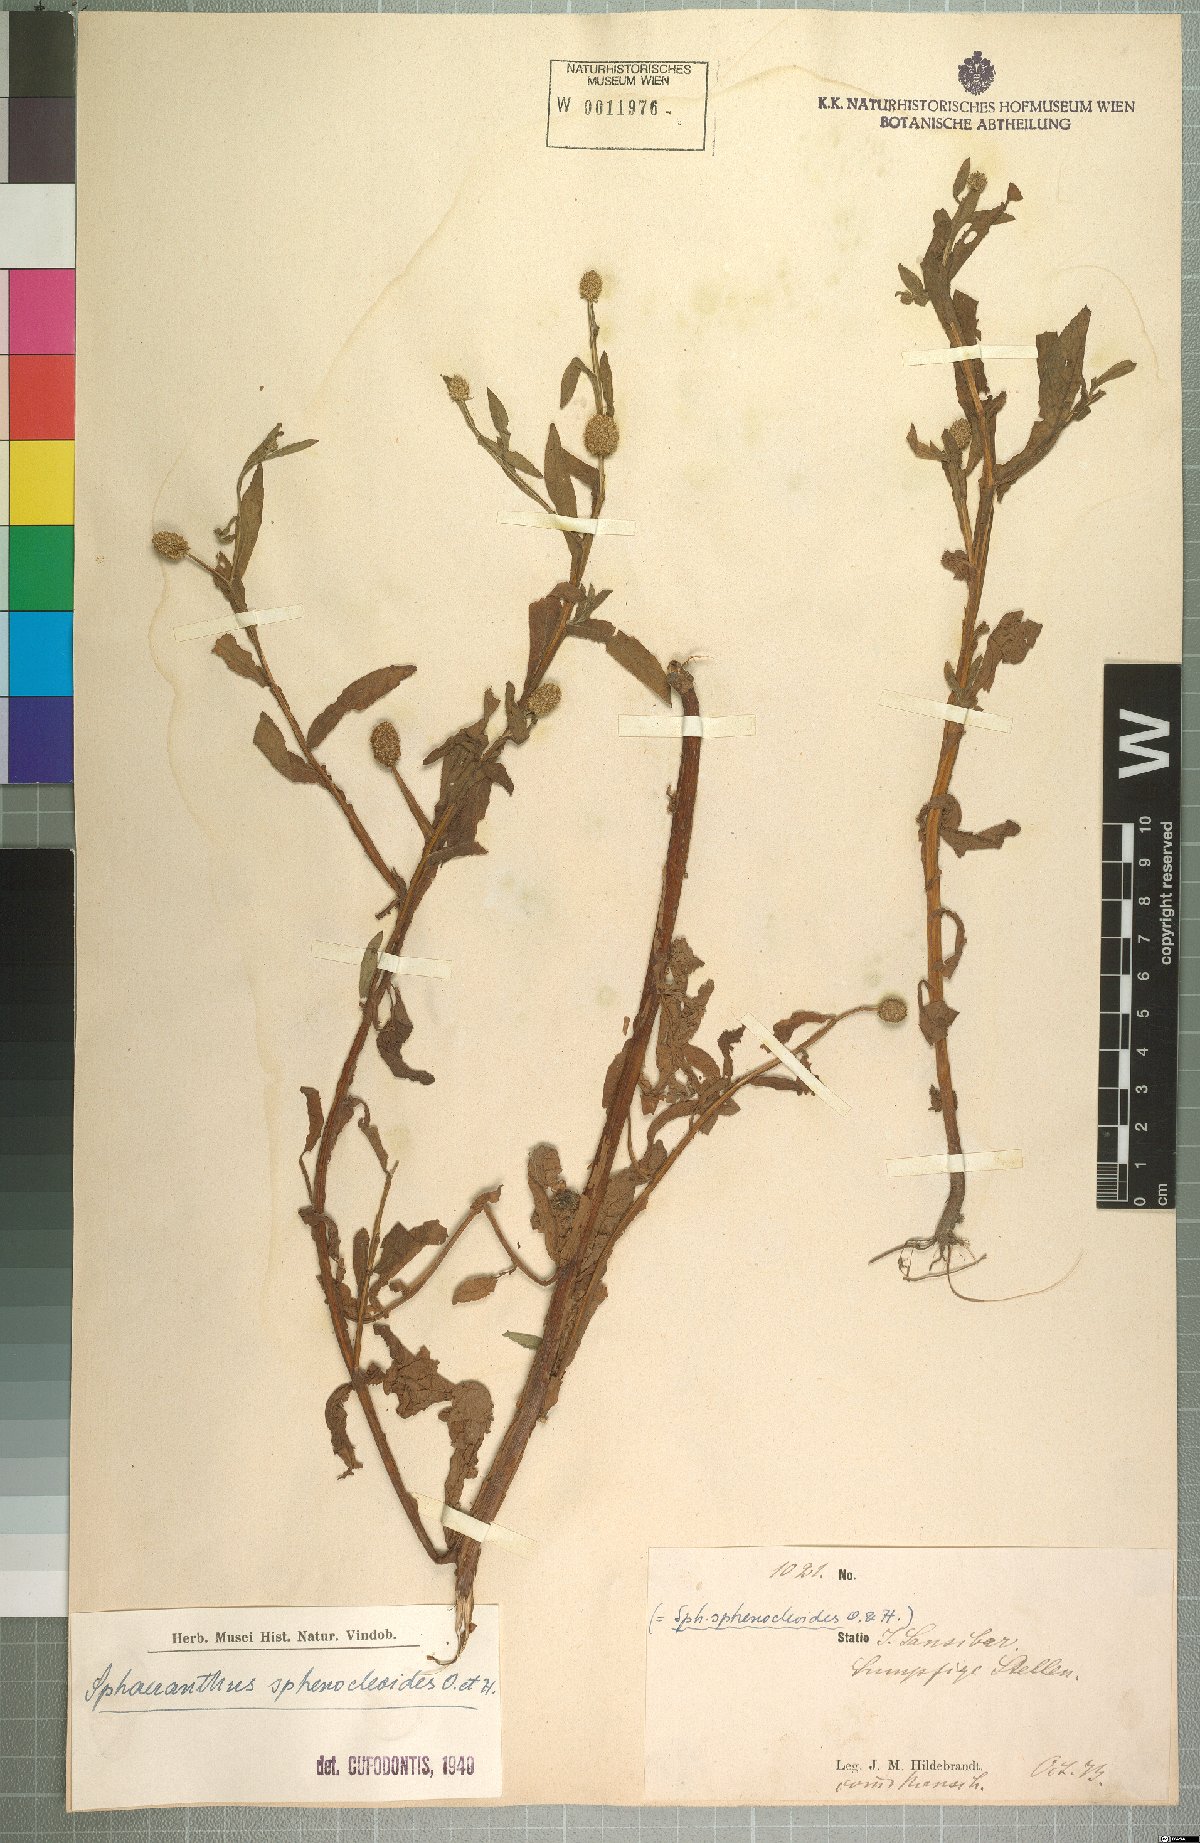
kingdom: Plantae
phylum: Tracheophyta
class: Magnoliopsida
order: Asterales
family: Asteraceae
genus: Sphaeranthus
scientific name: Sphaeranthus africanus
